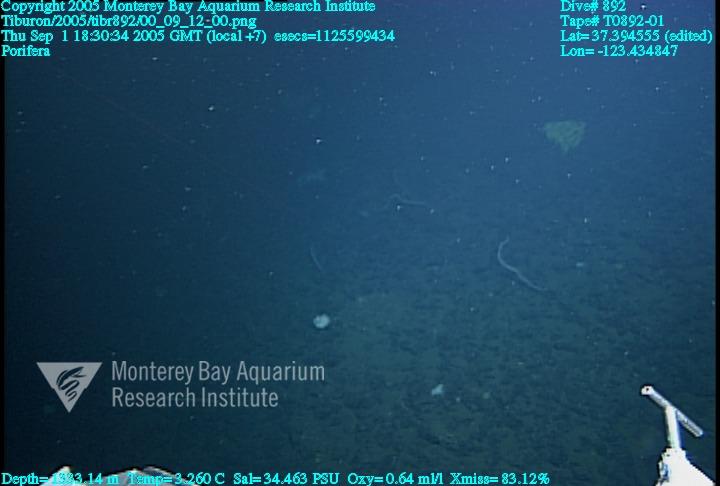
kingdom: Animalia
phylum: Porifera
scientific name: Porifera
